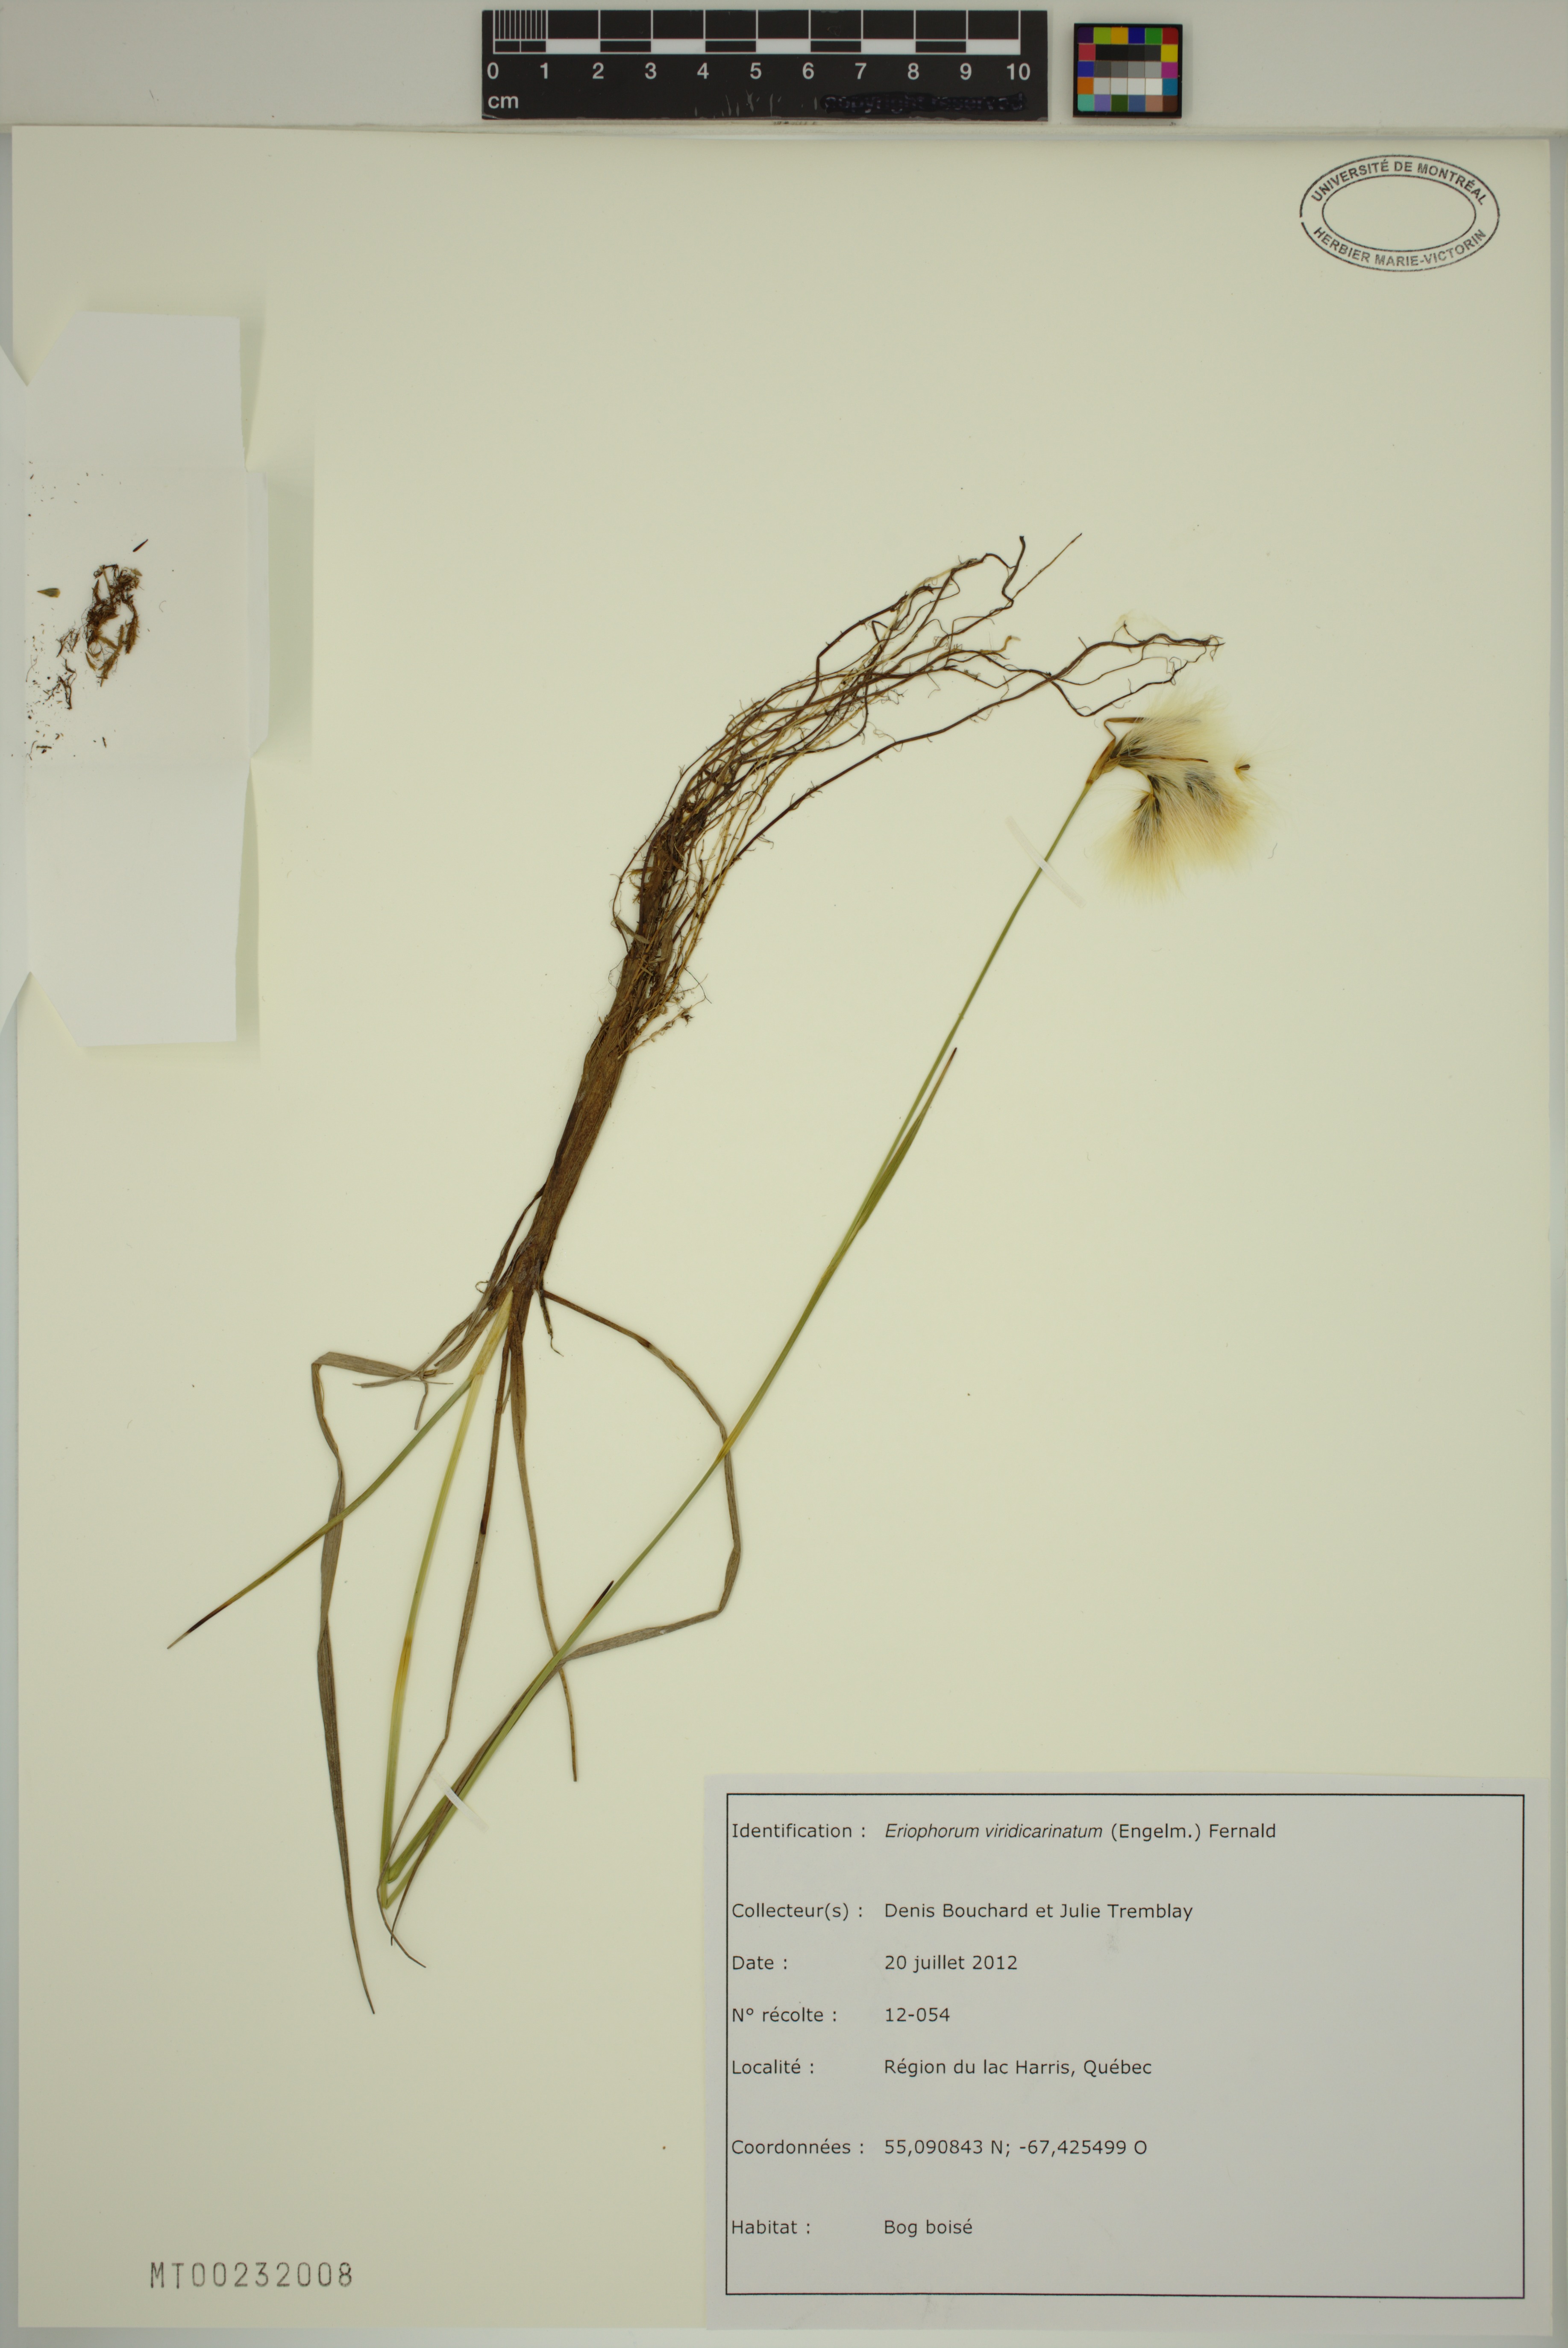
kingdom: Plantae
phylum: Tracheophyta
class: Liliopsida
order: Poales
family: Cyperaceae
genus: Eriophorum
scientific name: Eriophorum viridicarinatum
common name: Green-keeled cottongrass
